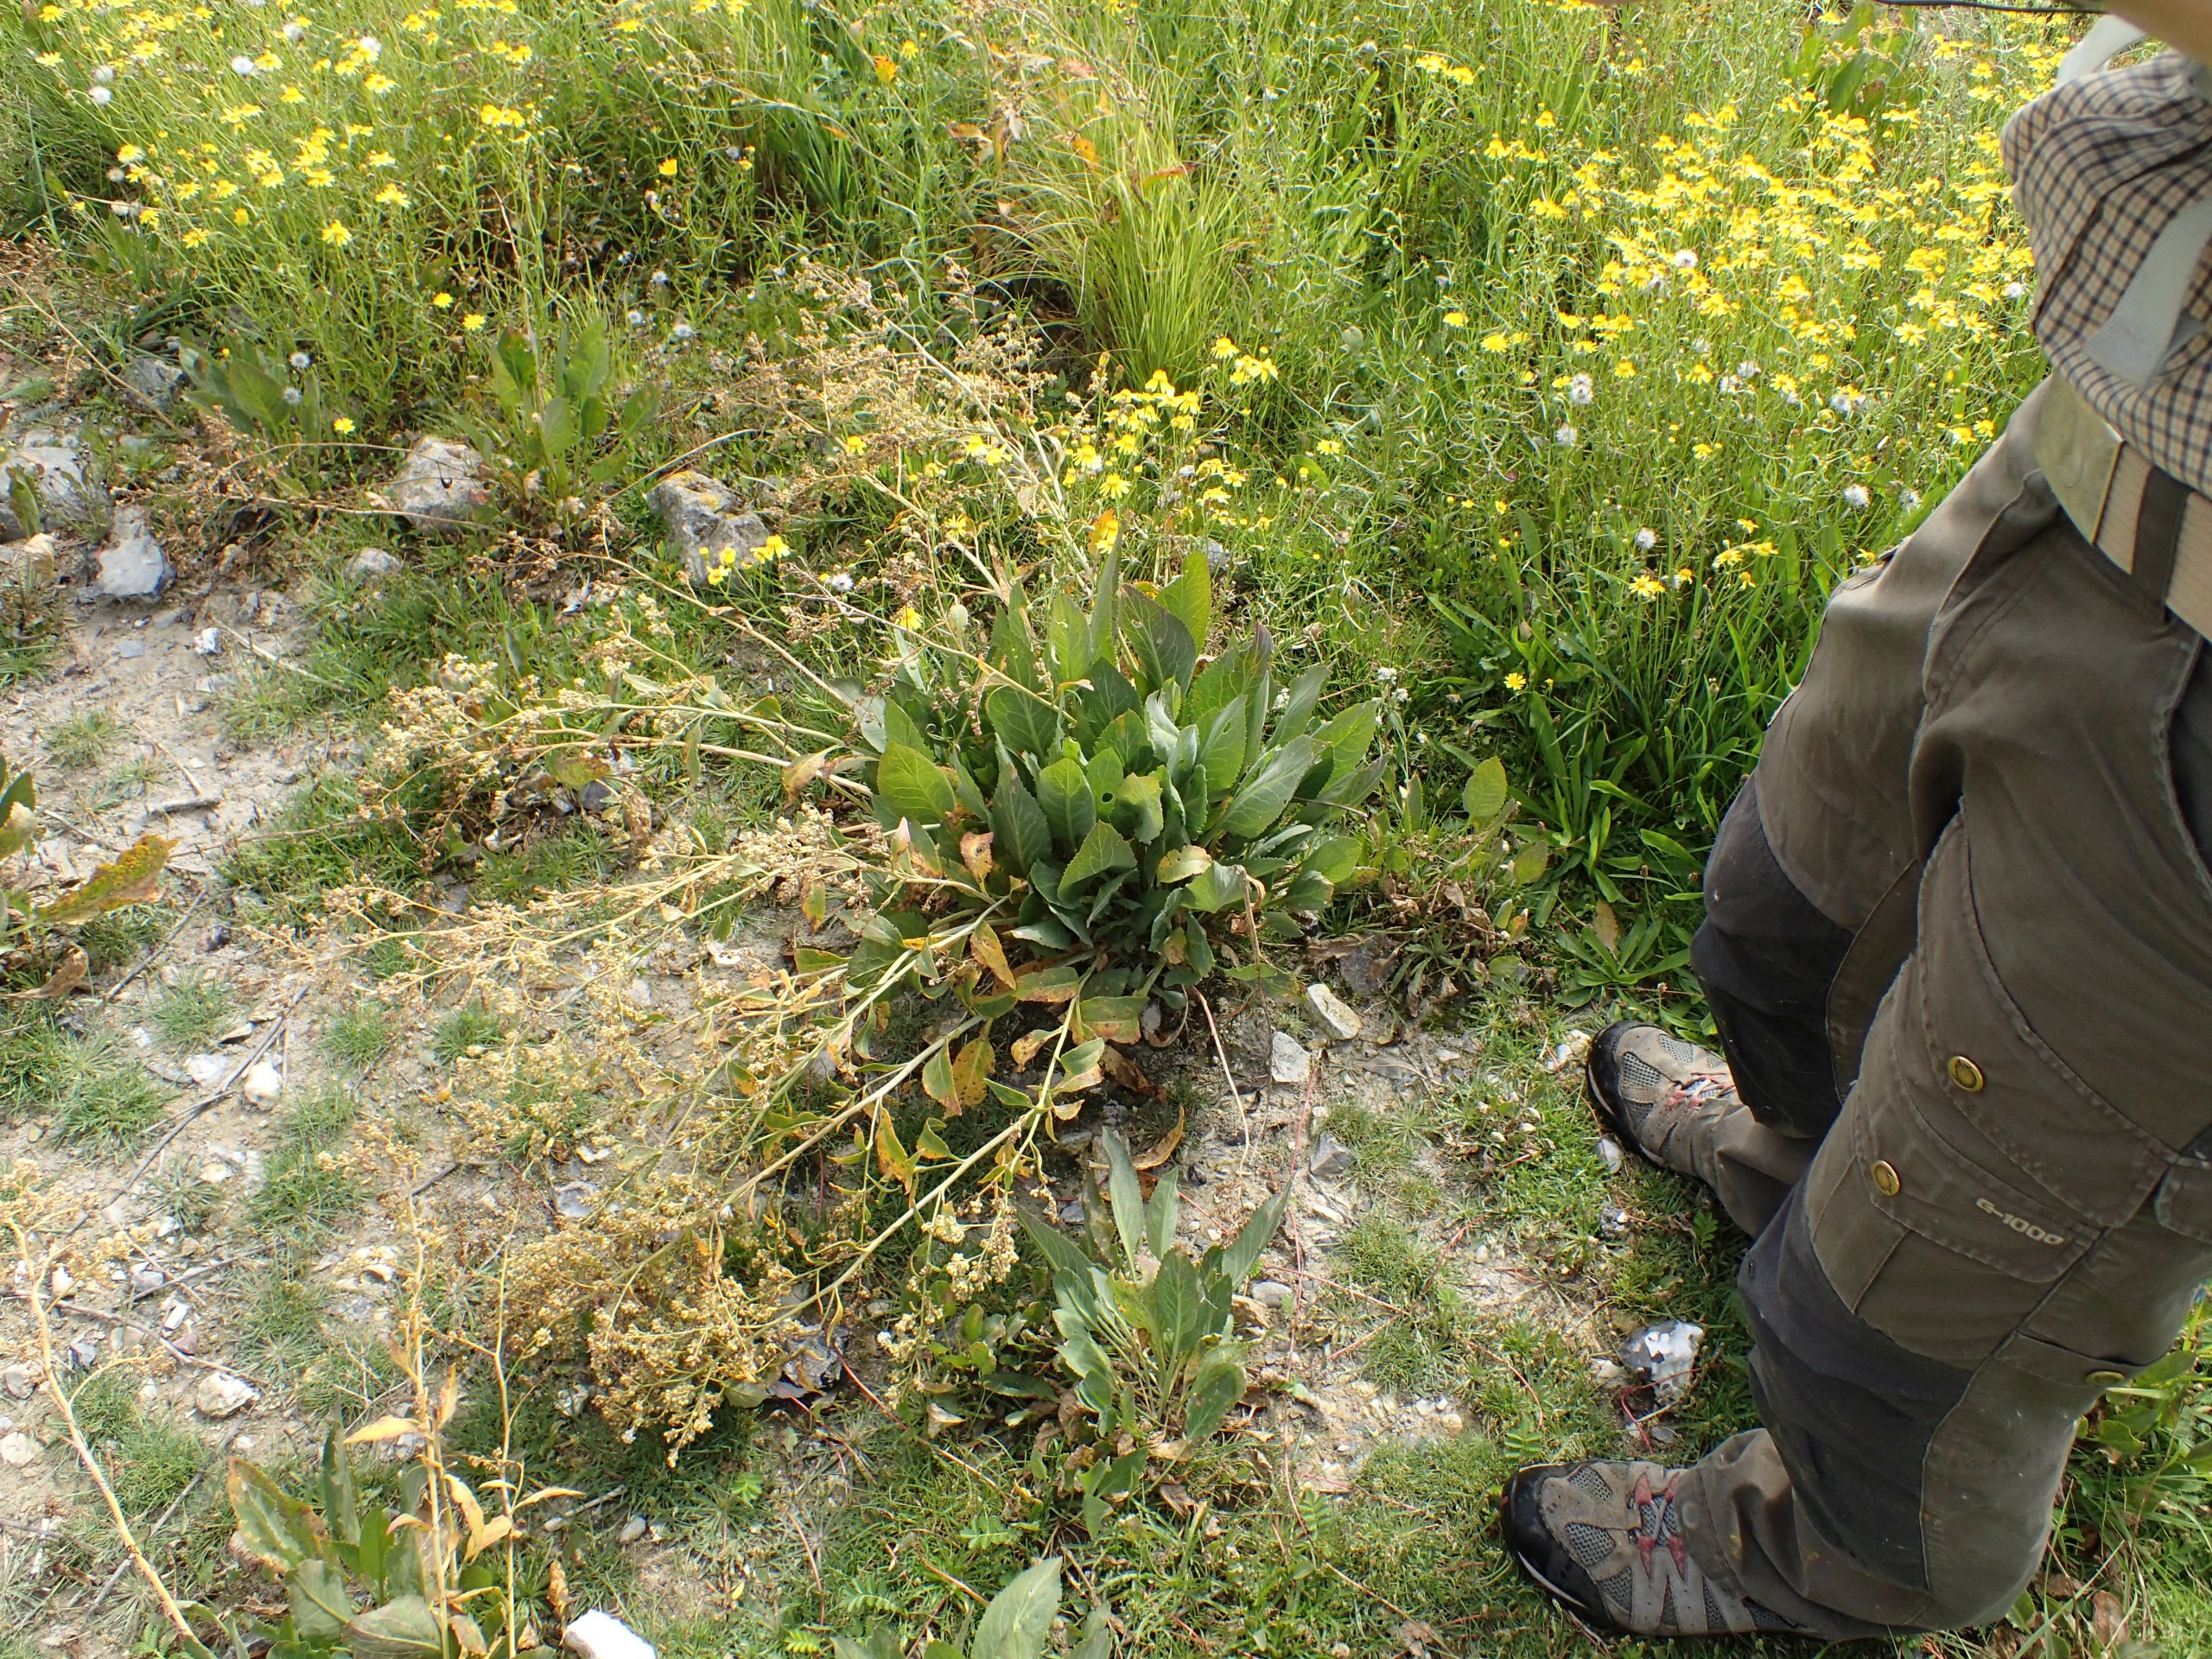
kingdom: Plantae
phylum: Tracheophyta
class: Magnoliopsida
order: Brassicales
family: Brassicaceae
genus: Lepidium
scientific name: Lepidium latifolium
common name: Strand-karse
